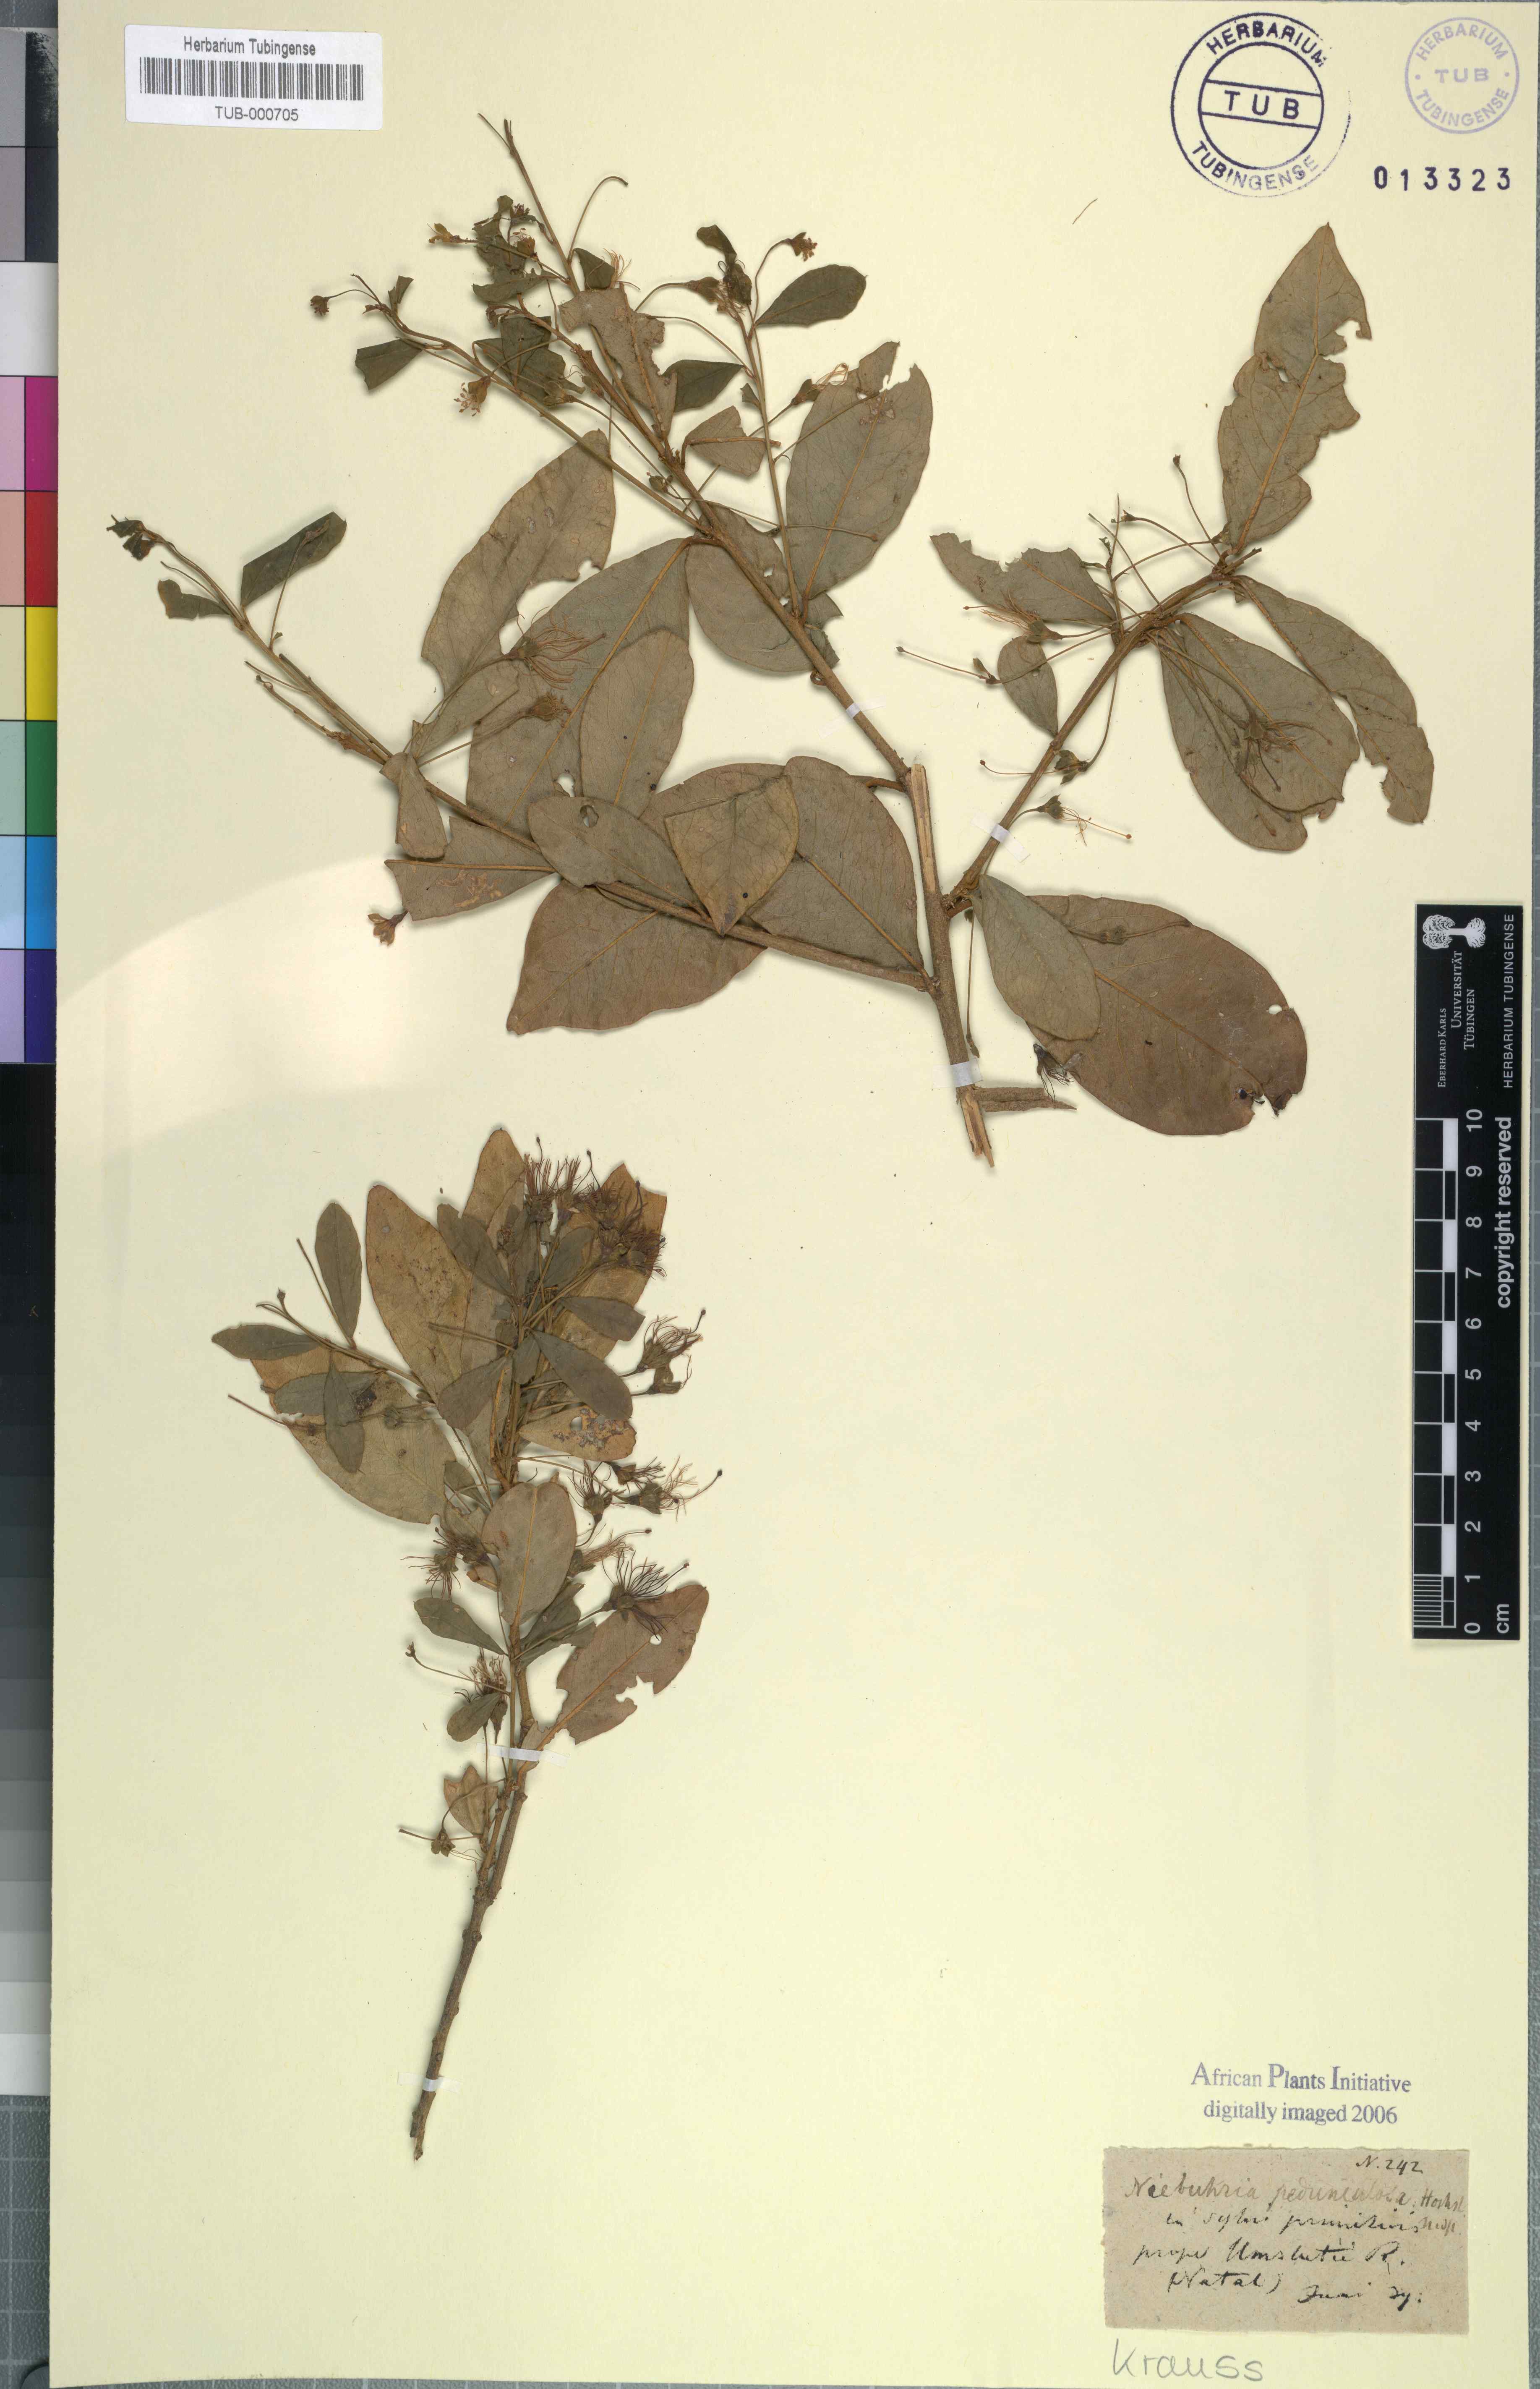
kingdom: Plantae
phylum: Tracheophyta
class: Magnoliopsida
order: Brassicales
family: Capparaceae
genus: Maerua
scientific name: Maerua cafra
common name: Bush maerua
